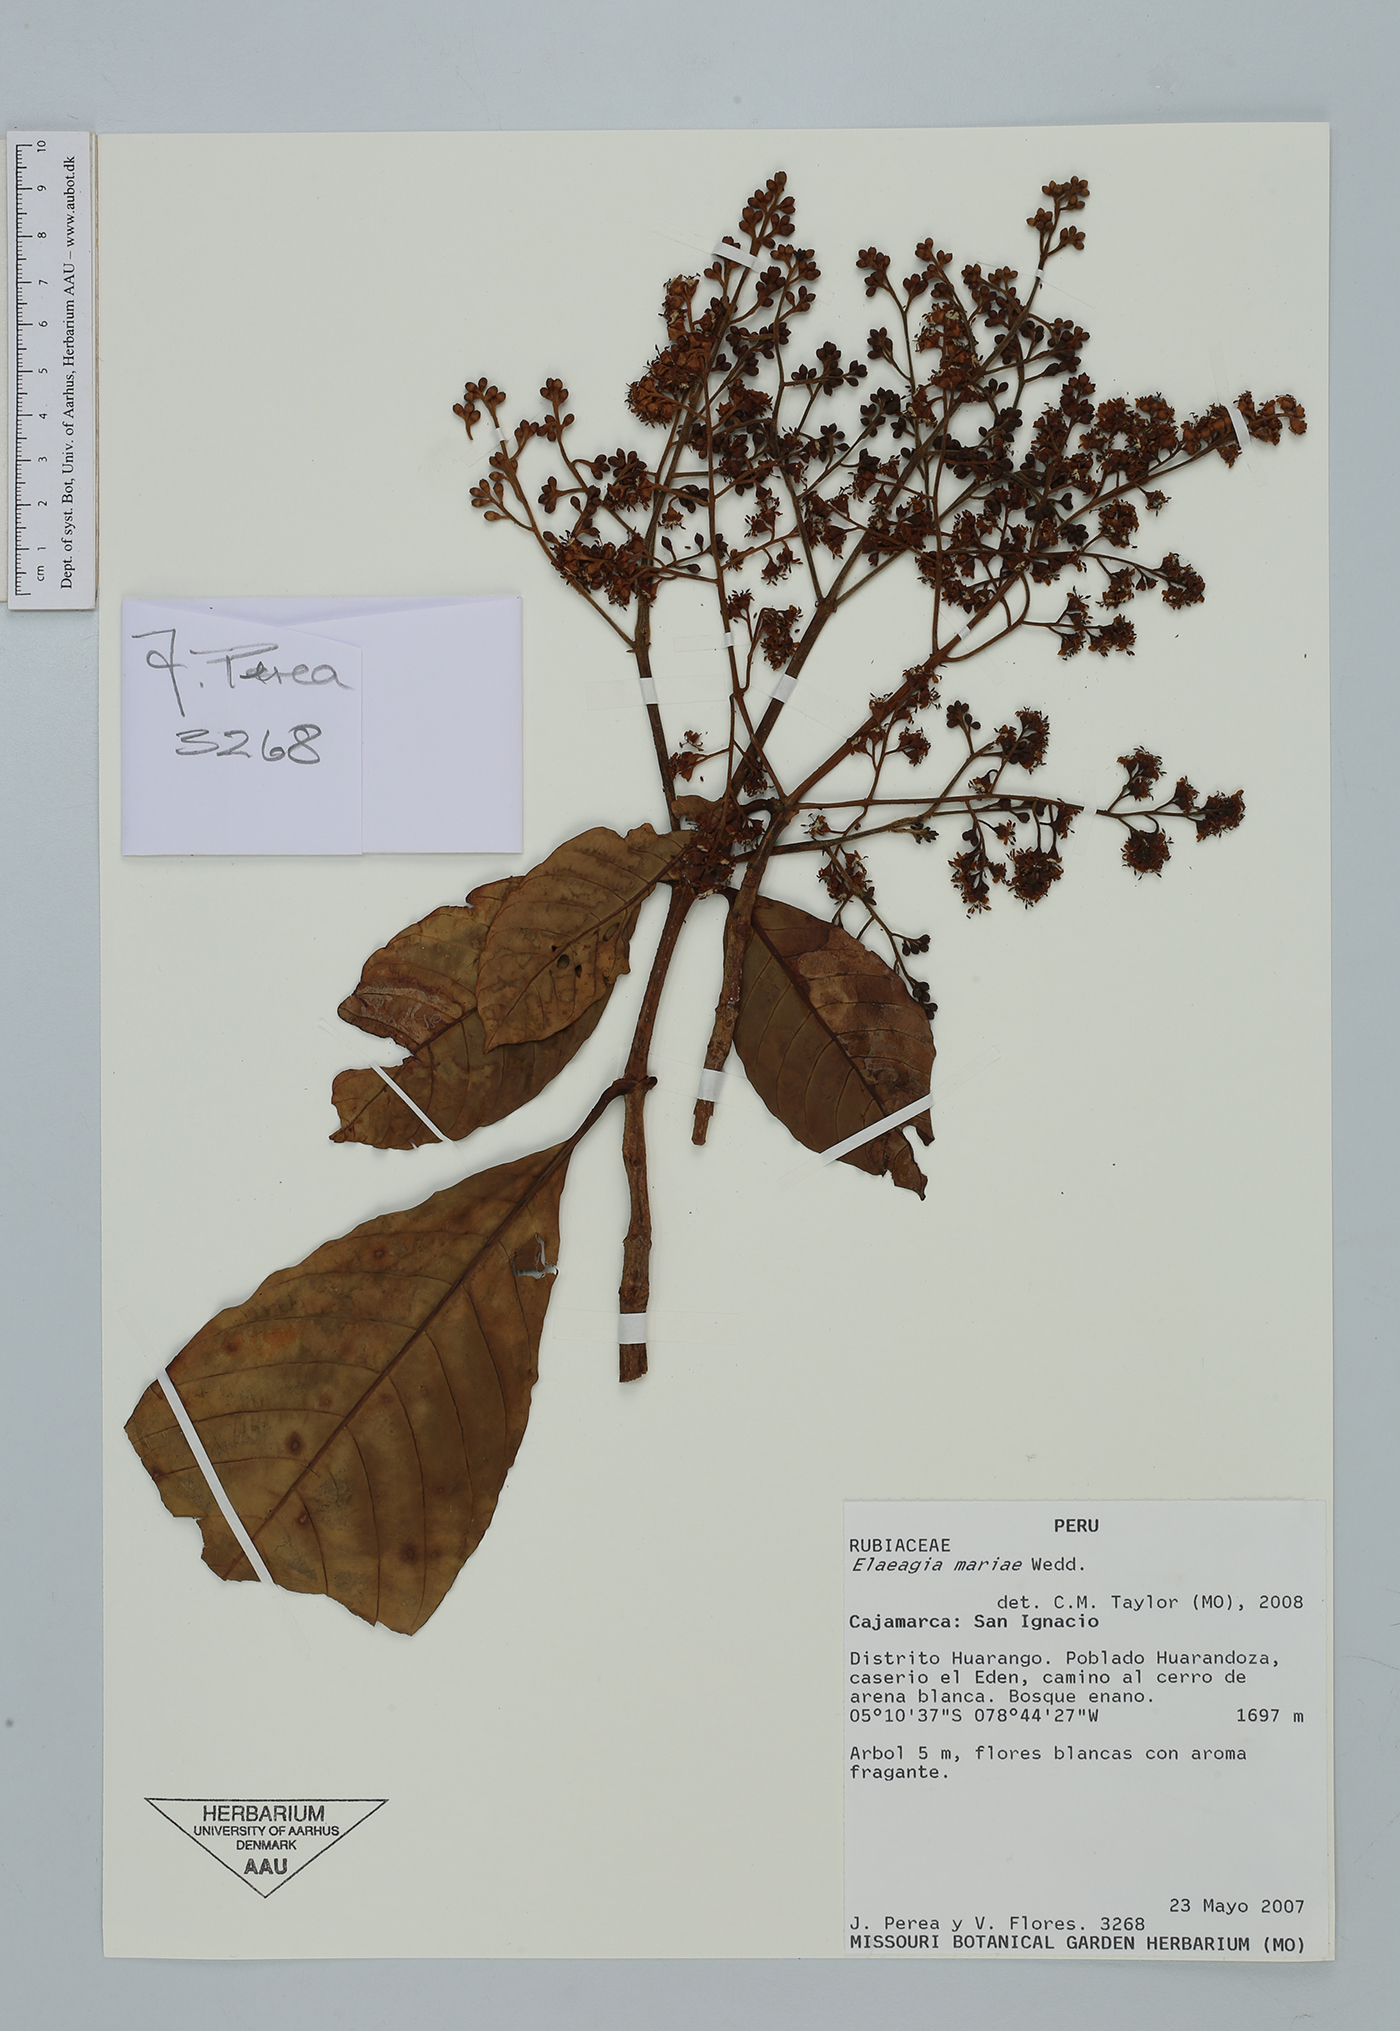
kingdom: Plantae
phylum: Tracheophyta
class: Magnoliopsida
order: Gentianales
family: Rubiaceae
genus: Elaeagia
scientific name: Elaeagia mariae
